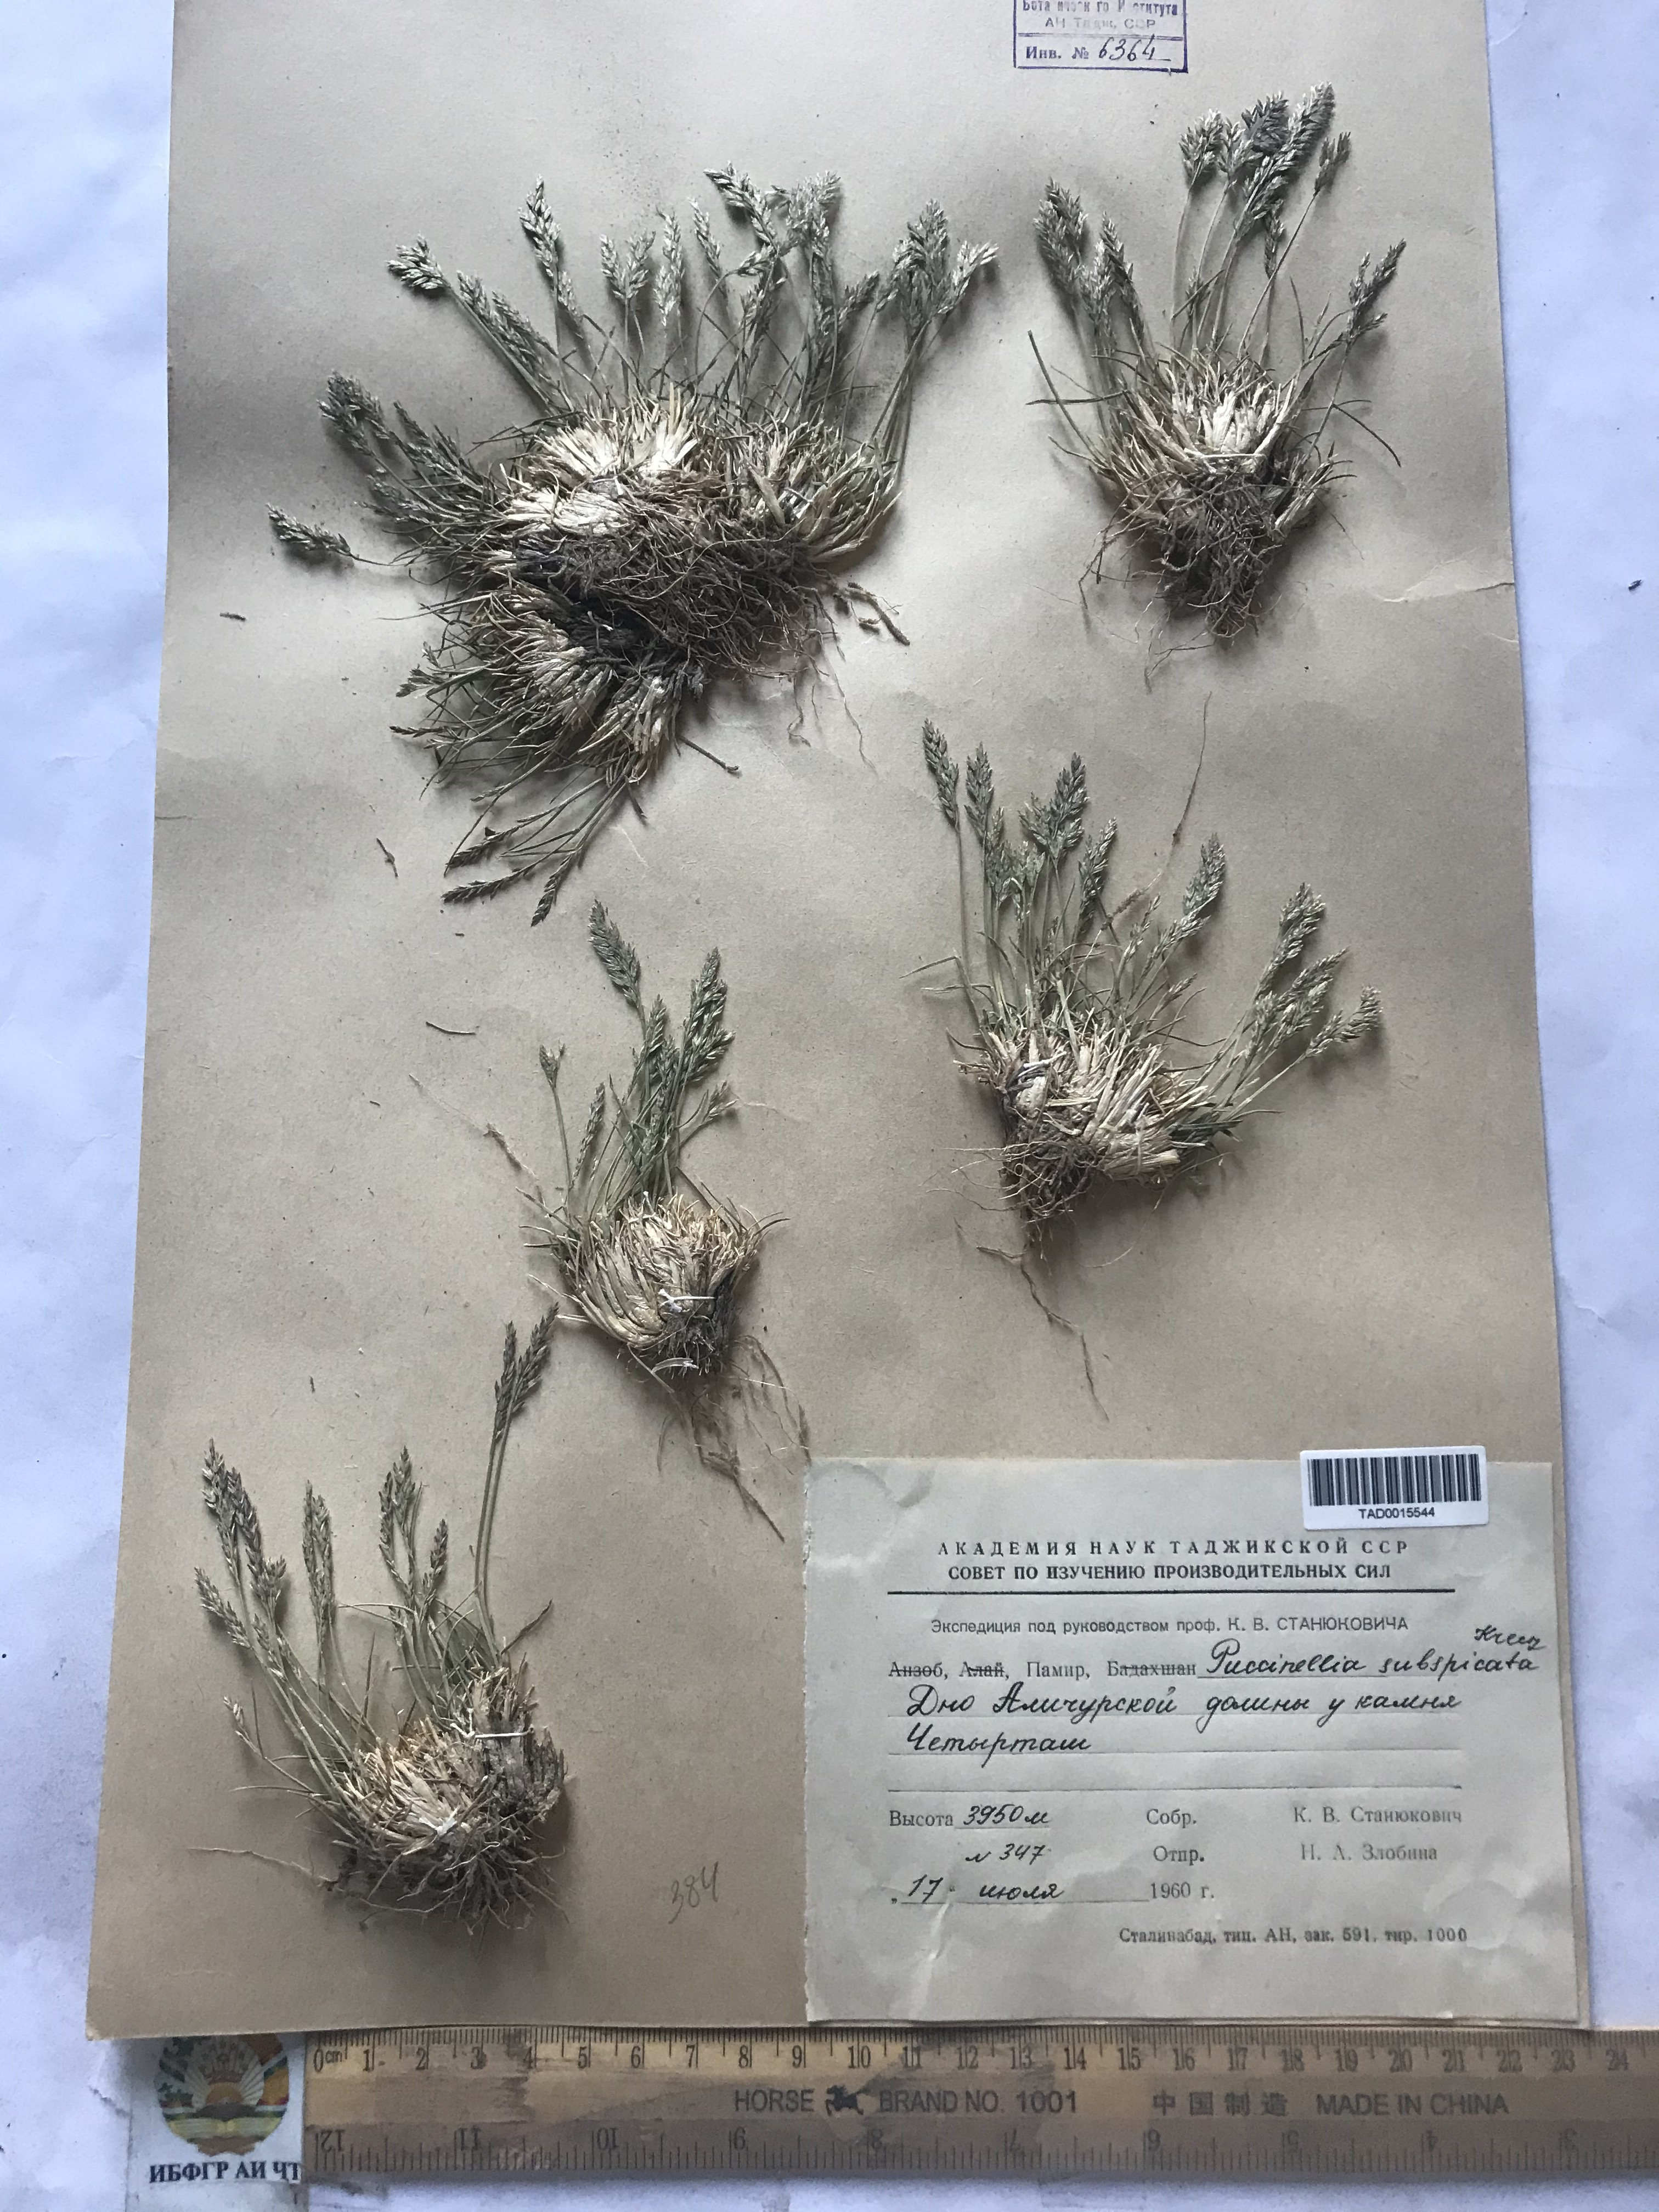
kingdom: Plantae
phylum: Tracheophyta
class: Liliopsida
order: Poales
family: Poaceae
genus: Puccinellia
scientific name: Puccinellia subspicata
